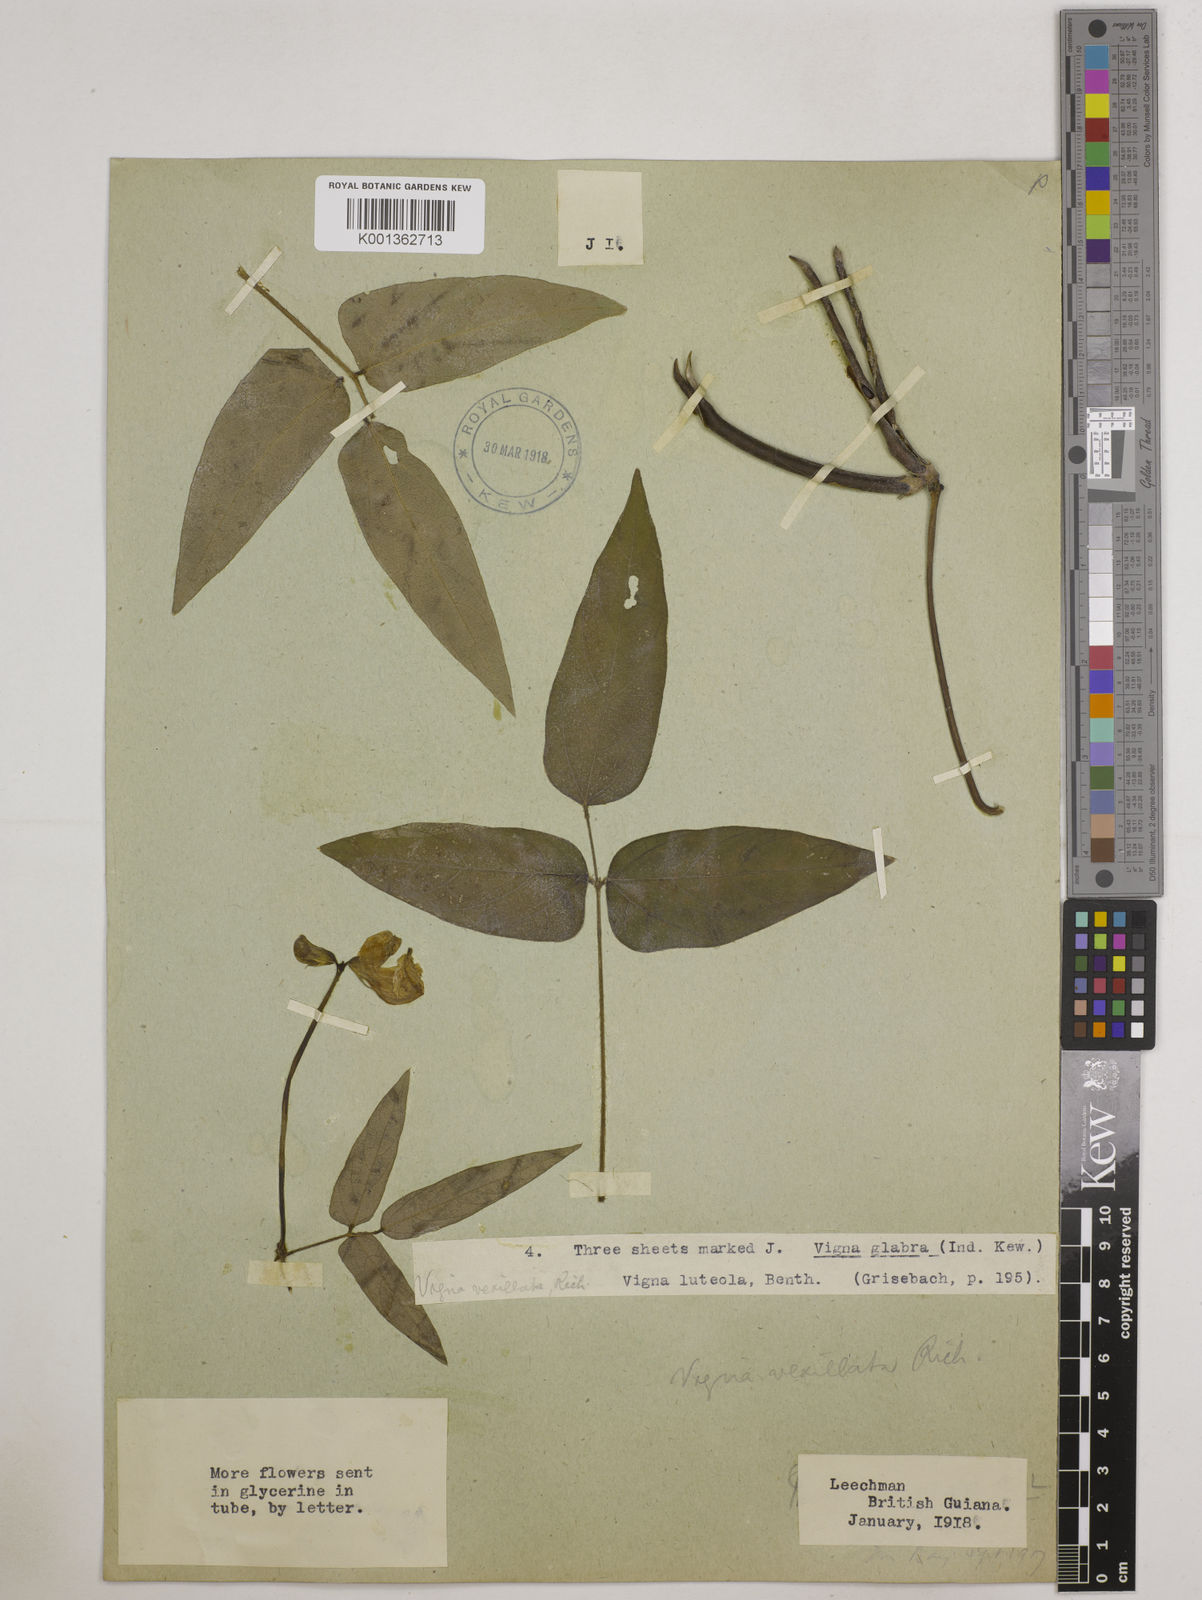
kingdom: Plantae
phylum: Tracheophyta
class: Magnoliopsida
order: Fabales
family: Fabaceae
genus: Vigna
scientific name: Vigna vexillata
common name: Zombi pea
